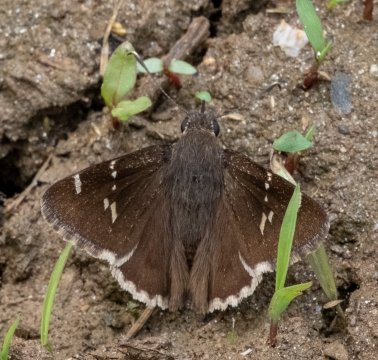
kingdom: Animalia
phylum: Arthropoda
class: Insecta
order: Lepidoptera
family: Hesperiidae
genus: Autochton
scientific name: Autochton
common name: Southern Cloudywing
